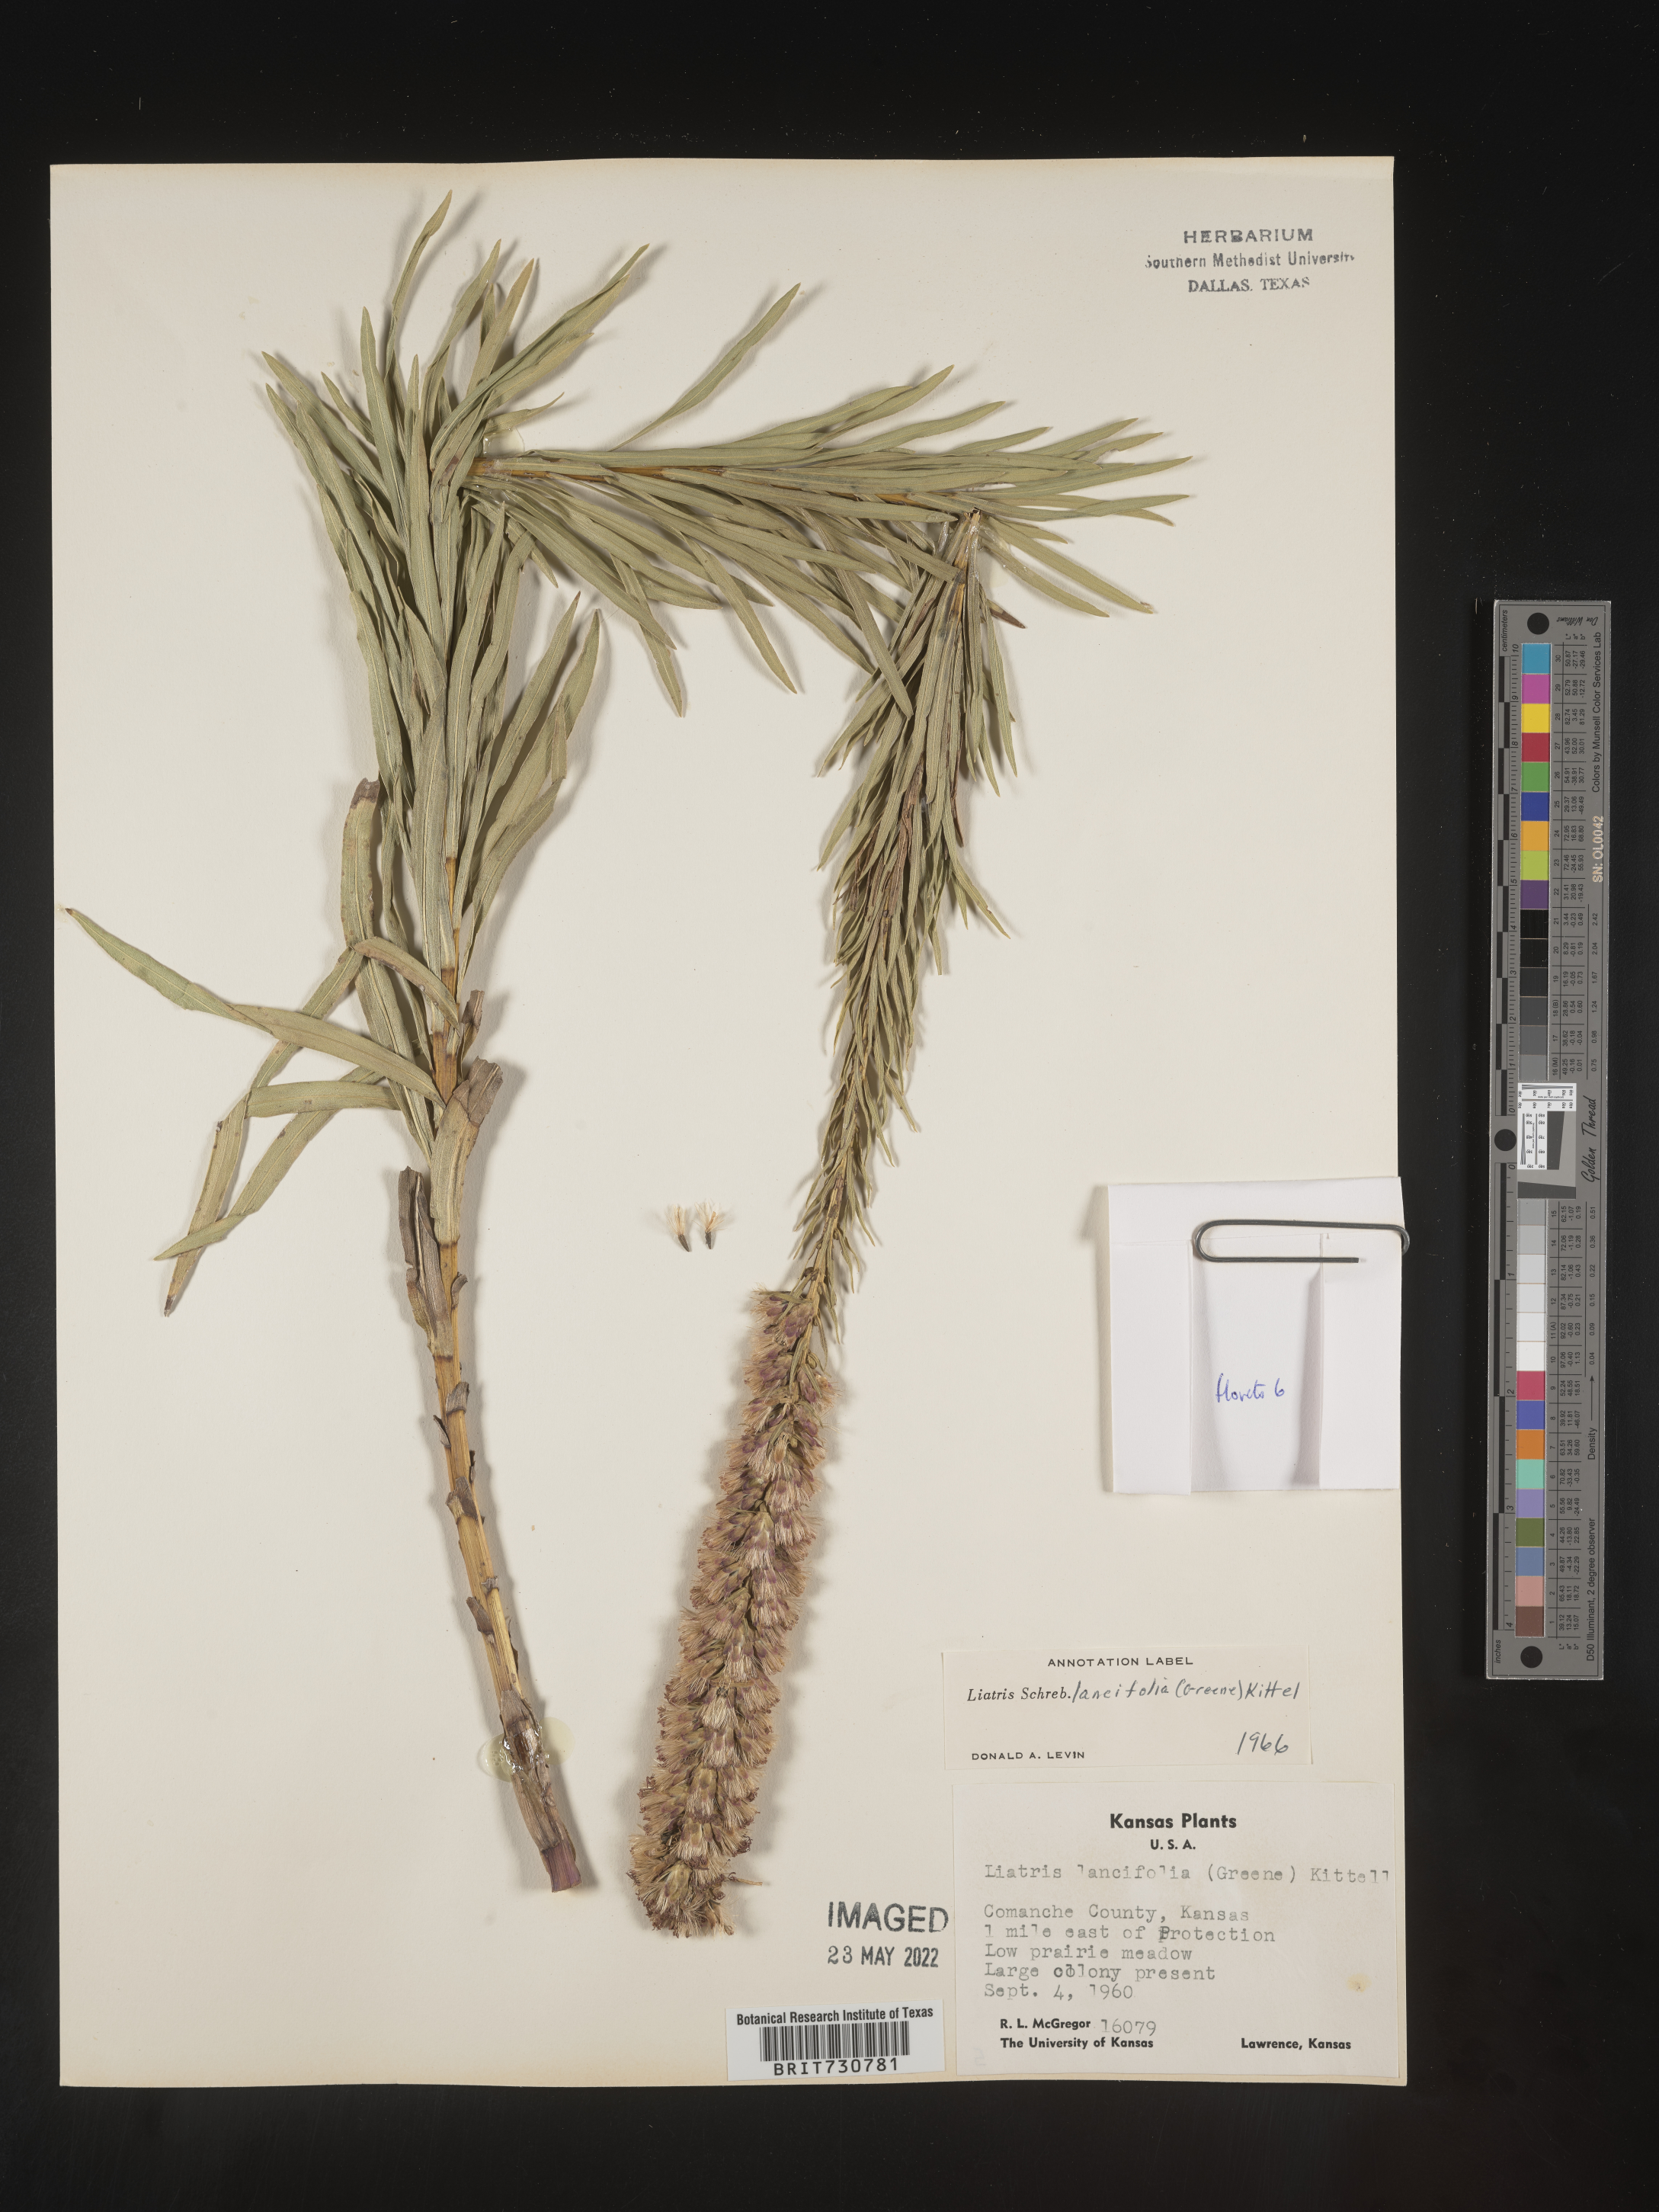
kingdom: Plantae
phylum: Tracheophyta
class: Magnoliopsida
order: Asterales
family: Asteraceae
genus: Liatris
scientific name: Liatris lancifolia
